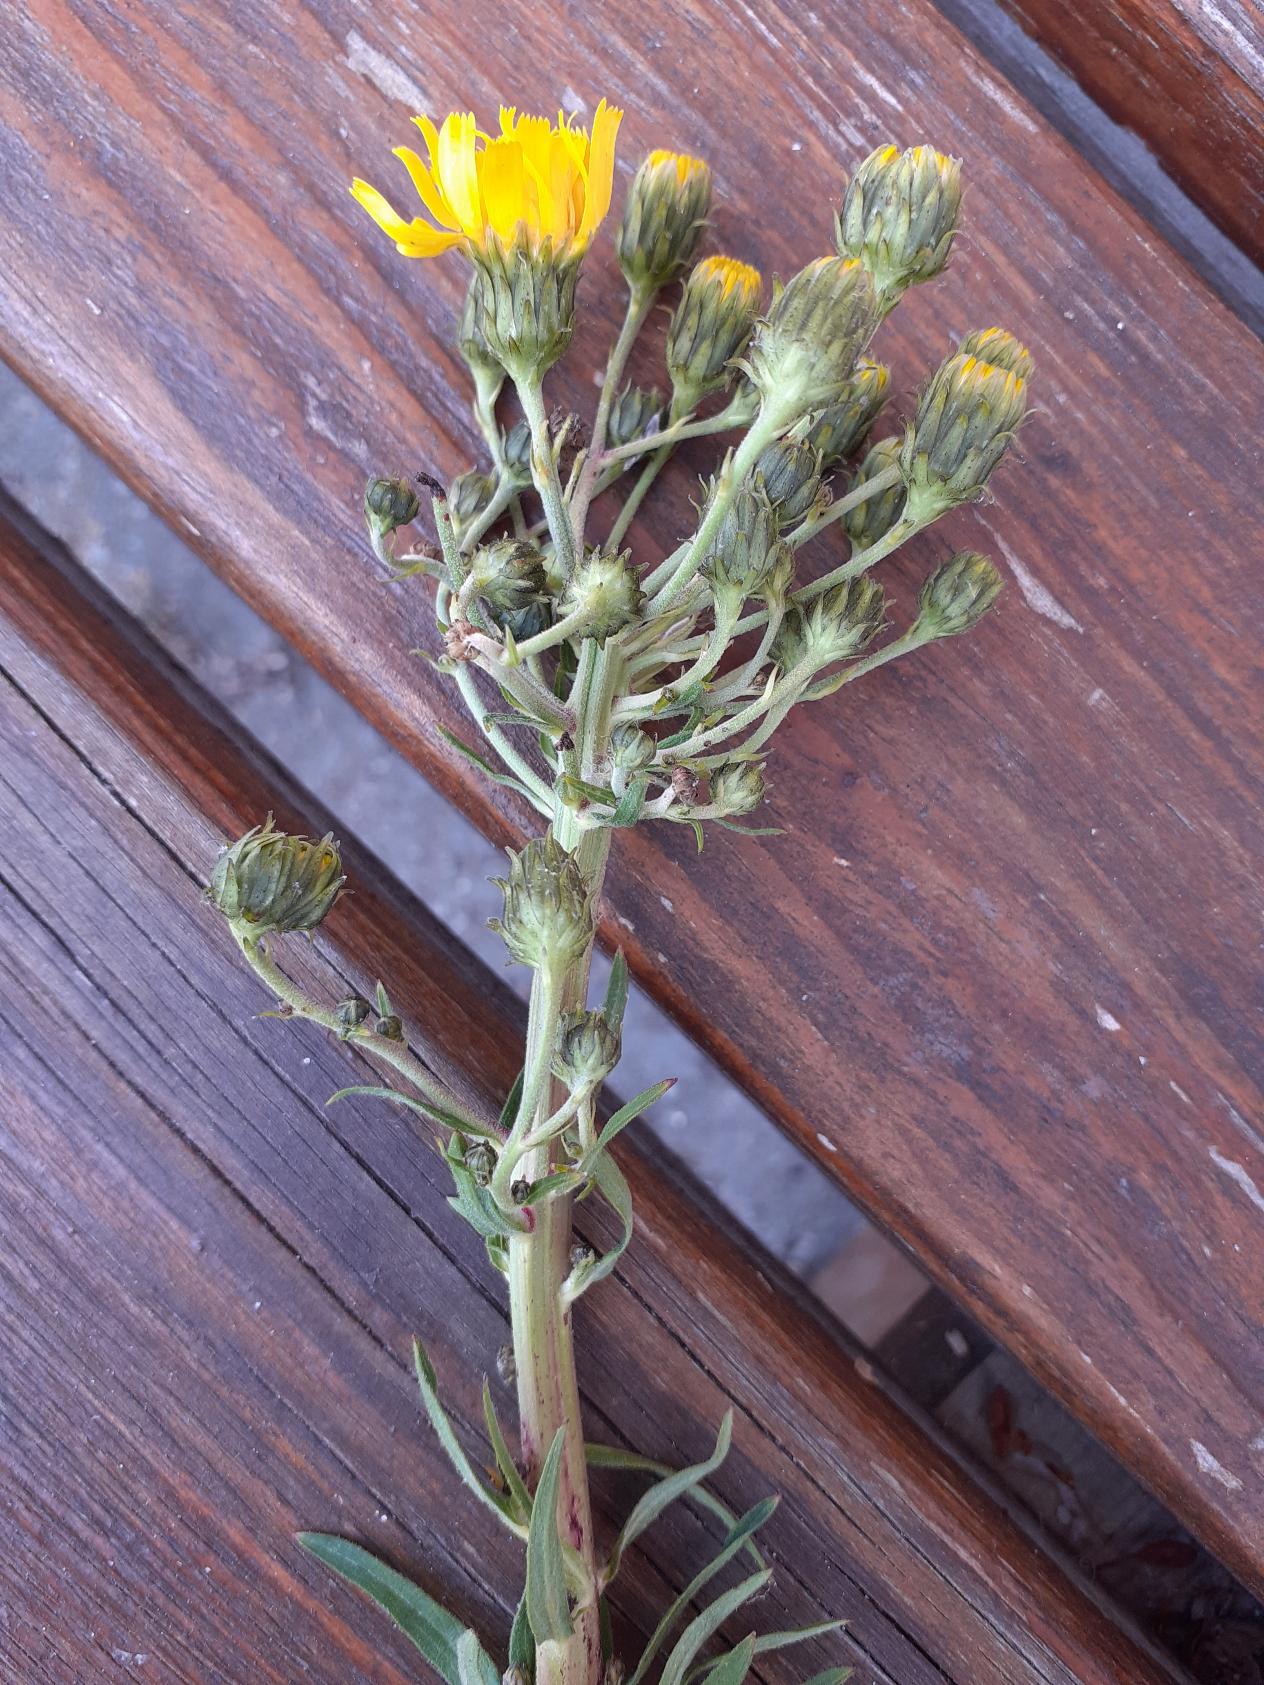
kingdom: Plantae
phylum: Tracheophyta
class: Magnoliopsida
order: Asterales
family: Asteraceae
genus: Hieracium
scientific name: Hieracium umbellatum
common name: Smalbladet høgeurt
